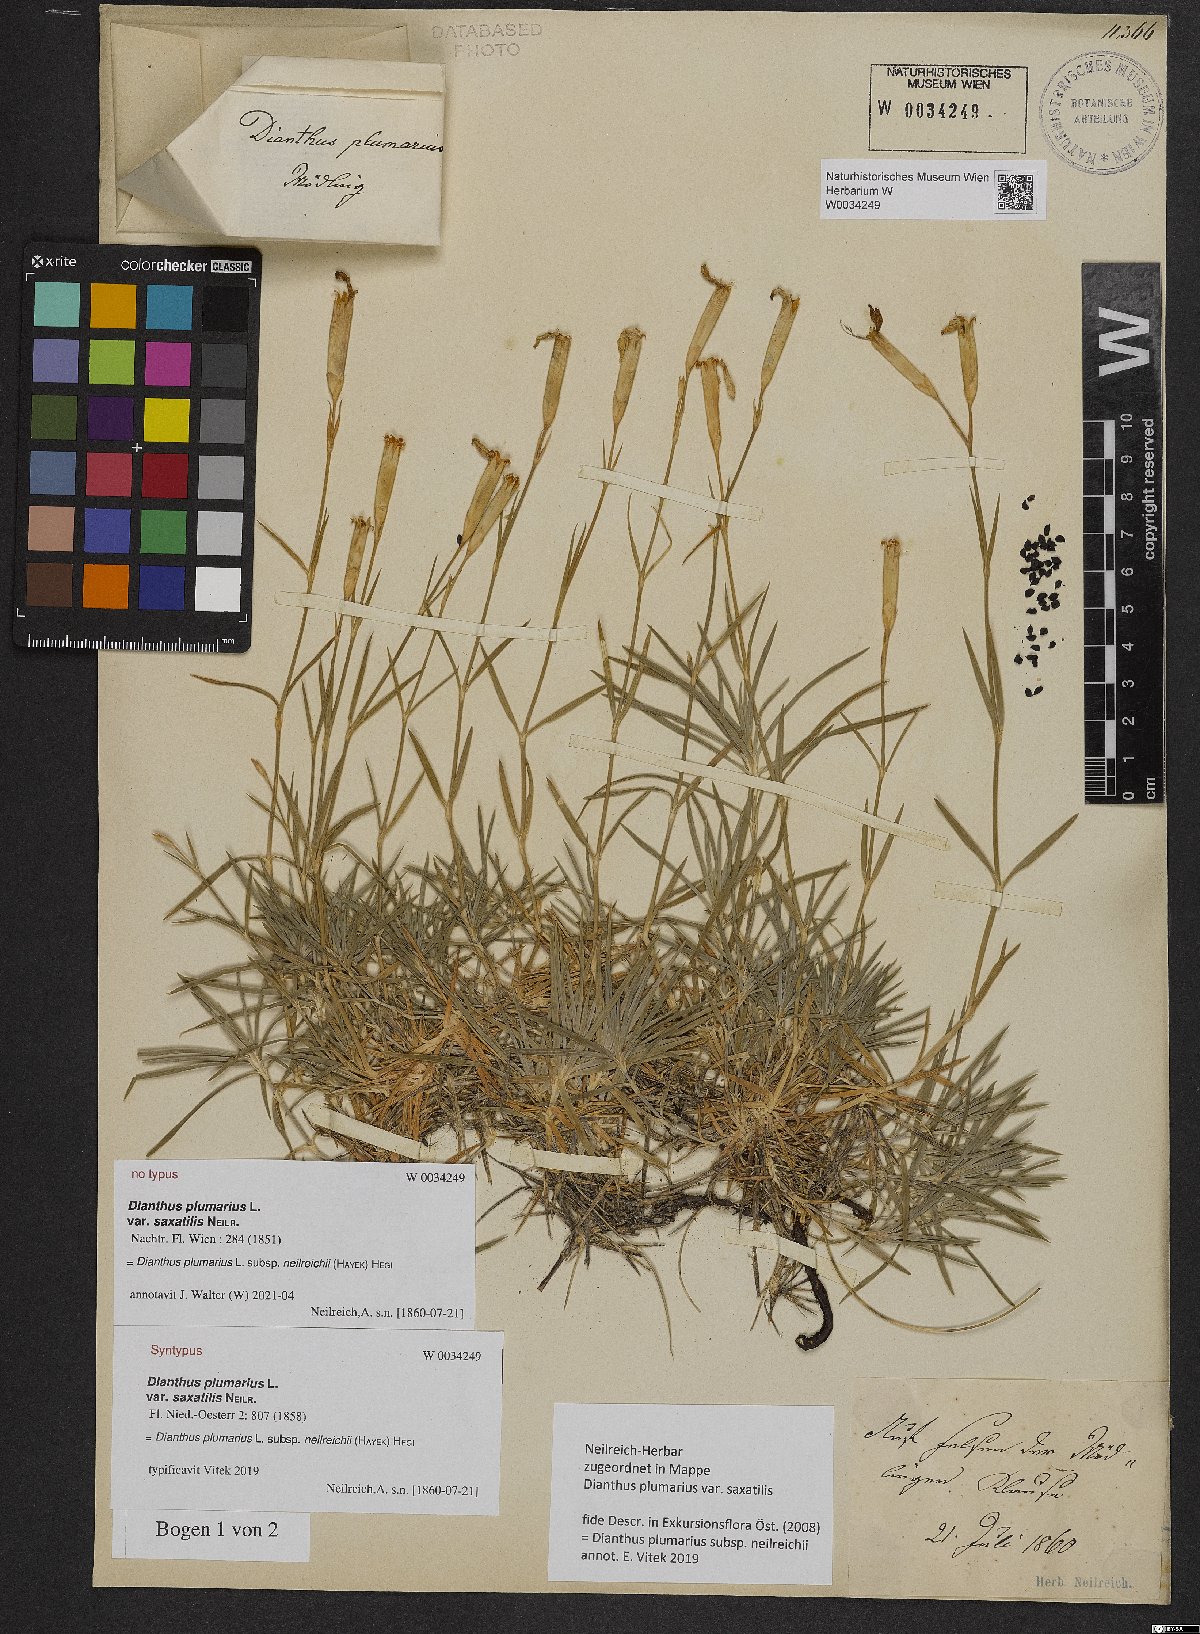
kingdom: Plantae
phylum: Tracheophyta
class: Magnoliopsida
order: Caryophyllales
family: Caryophyllaceae
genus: Dianthus
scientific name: Dianthus plumarius
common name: Pink
